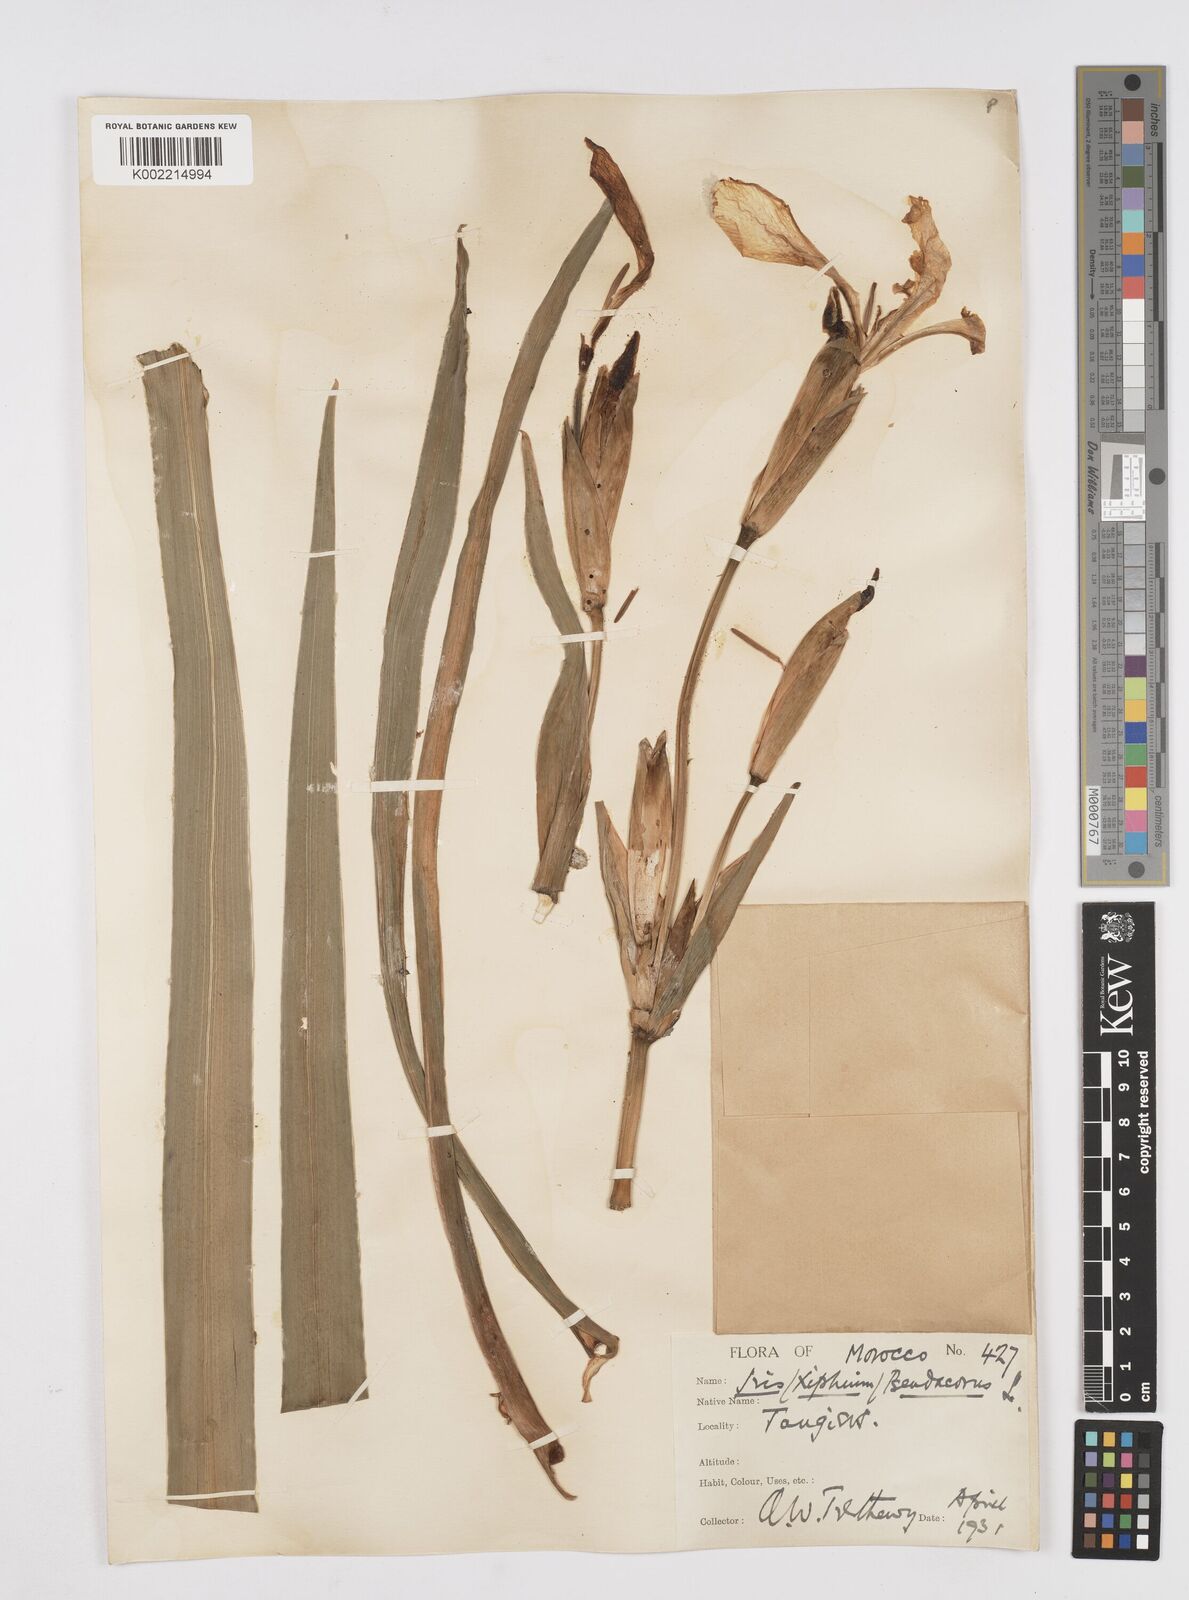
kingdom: Plantae
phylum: Tracheophyta
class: Liliopsida
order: Asparagales
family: Iridaceae
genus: Iris
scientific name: Iris pseudacorus
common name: Yellow flag
